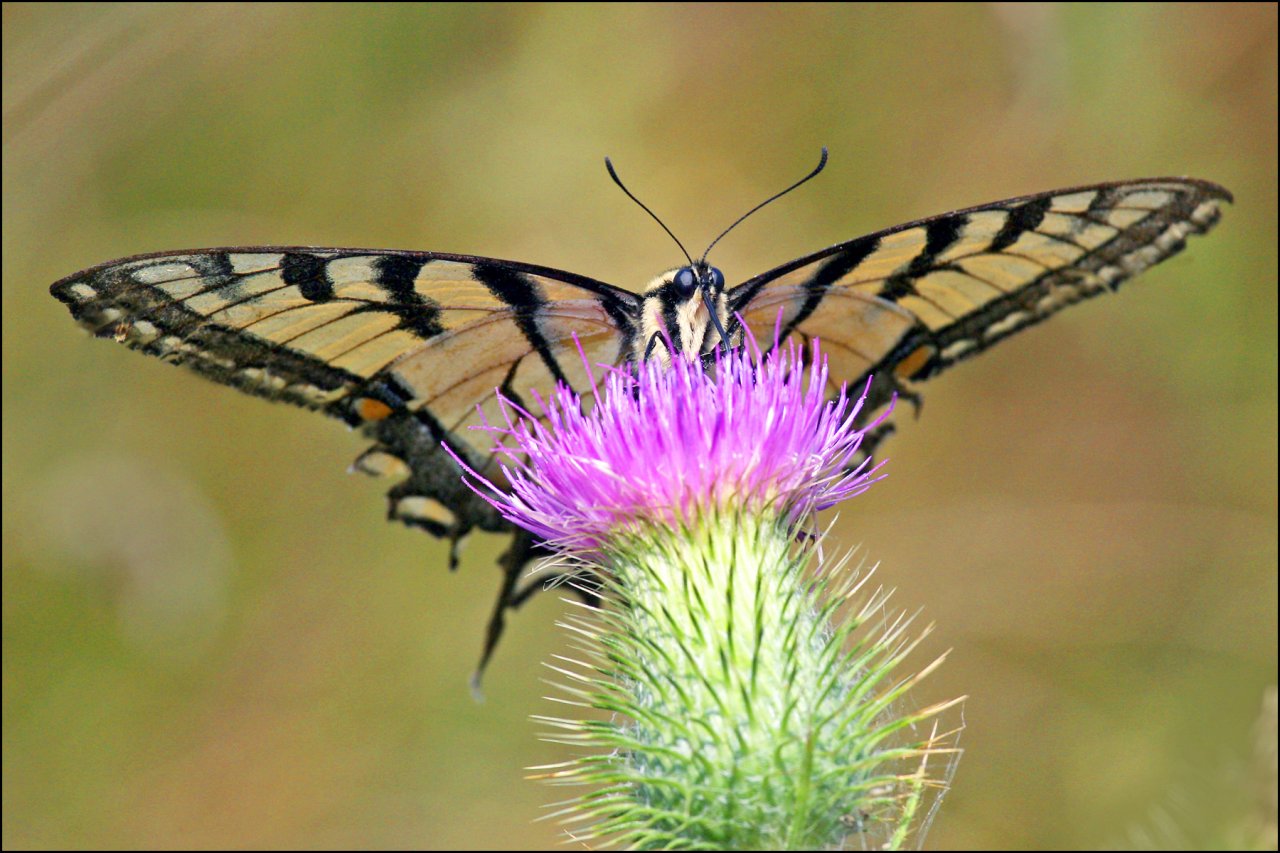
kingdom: Animalia
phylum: Arthropoda
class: Insecta
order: Lepidoptera
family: Papilionidae
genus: Pterourus
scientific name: Pterourus glaucus
